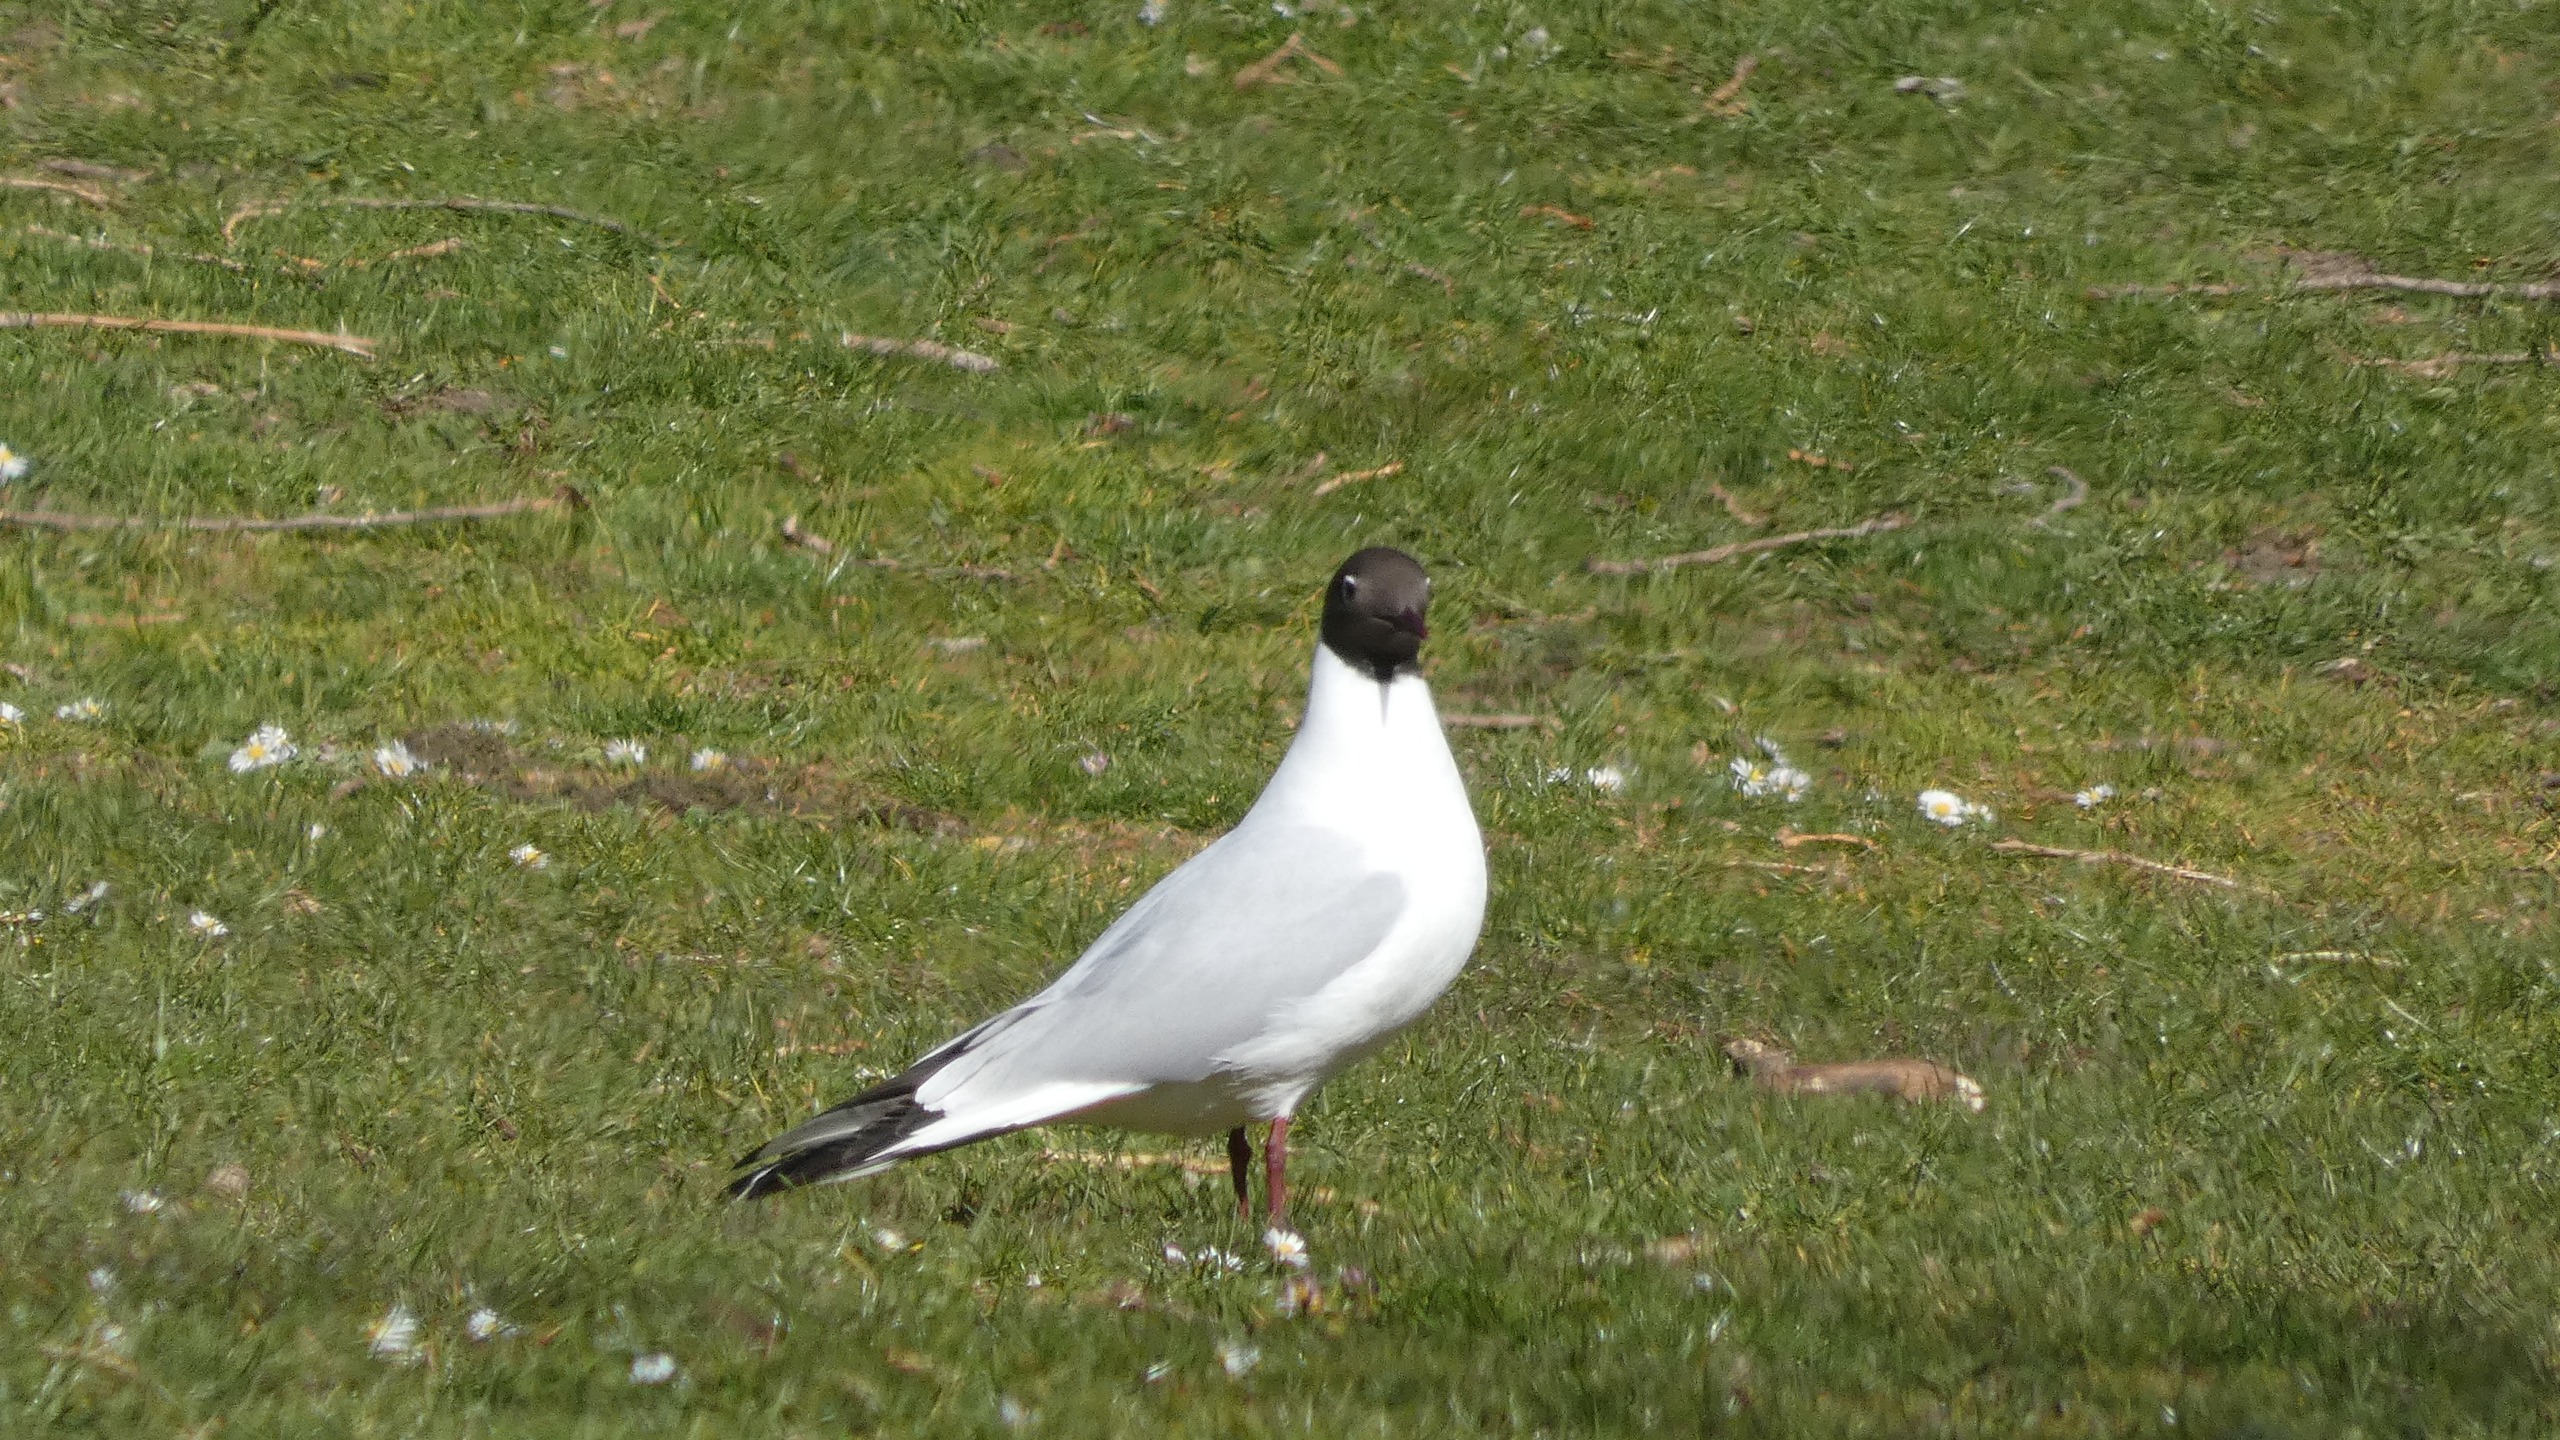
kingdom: Animalia
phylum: Chordata
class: Aves
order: Charadriiformes
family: Laridae
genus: Chroicocephalus
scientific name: Chroicocephalus ridibundus
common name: Hættemåge
